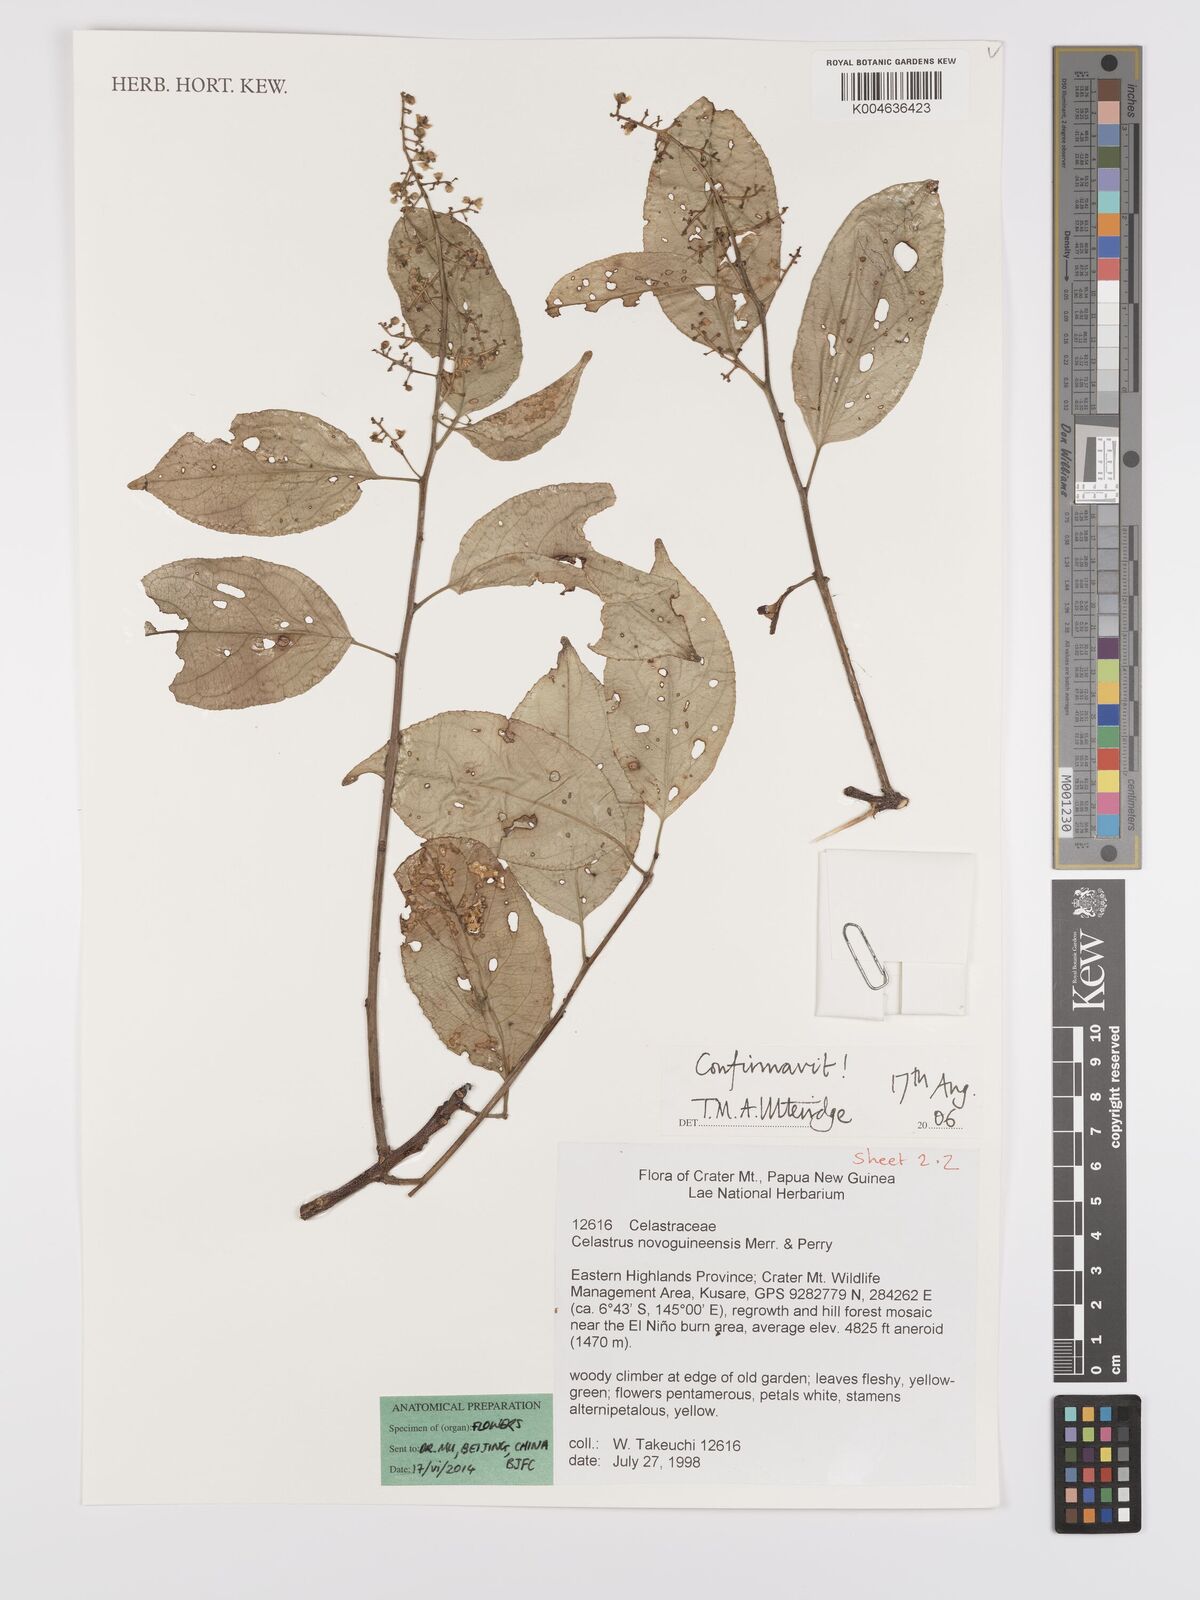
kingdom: Plantae
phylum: Tracheophyta
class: Magnoliopsida
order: Celastrales
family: Celastraceae
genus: Celastrus
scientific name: Celastrus novoguineensis
